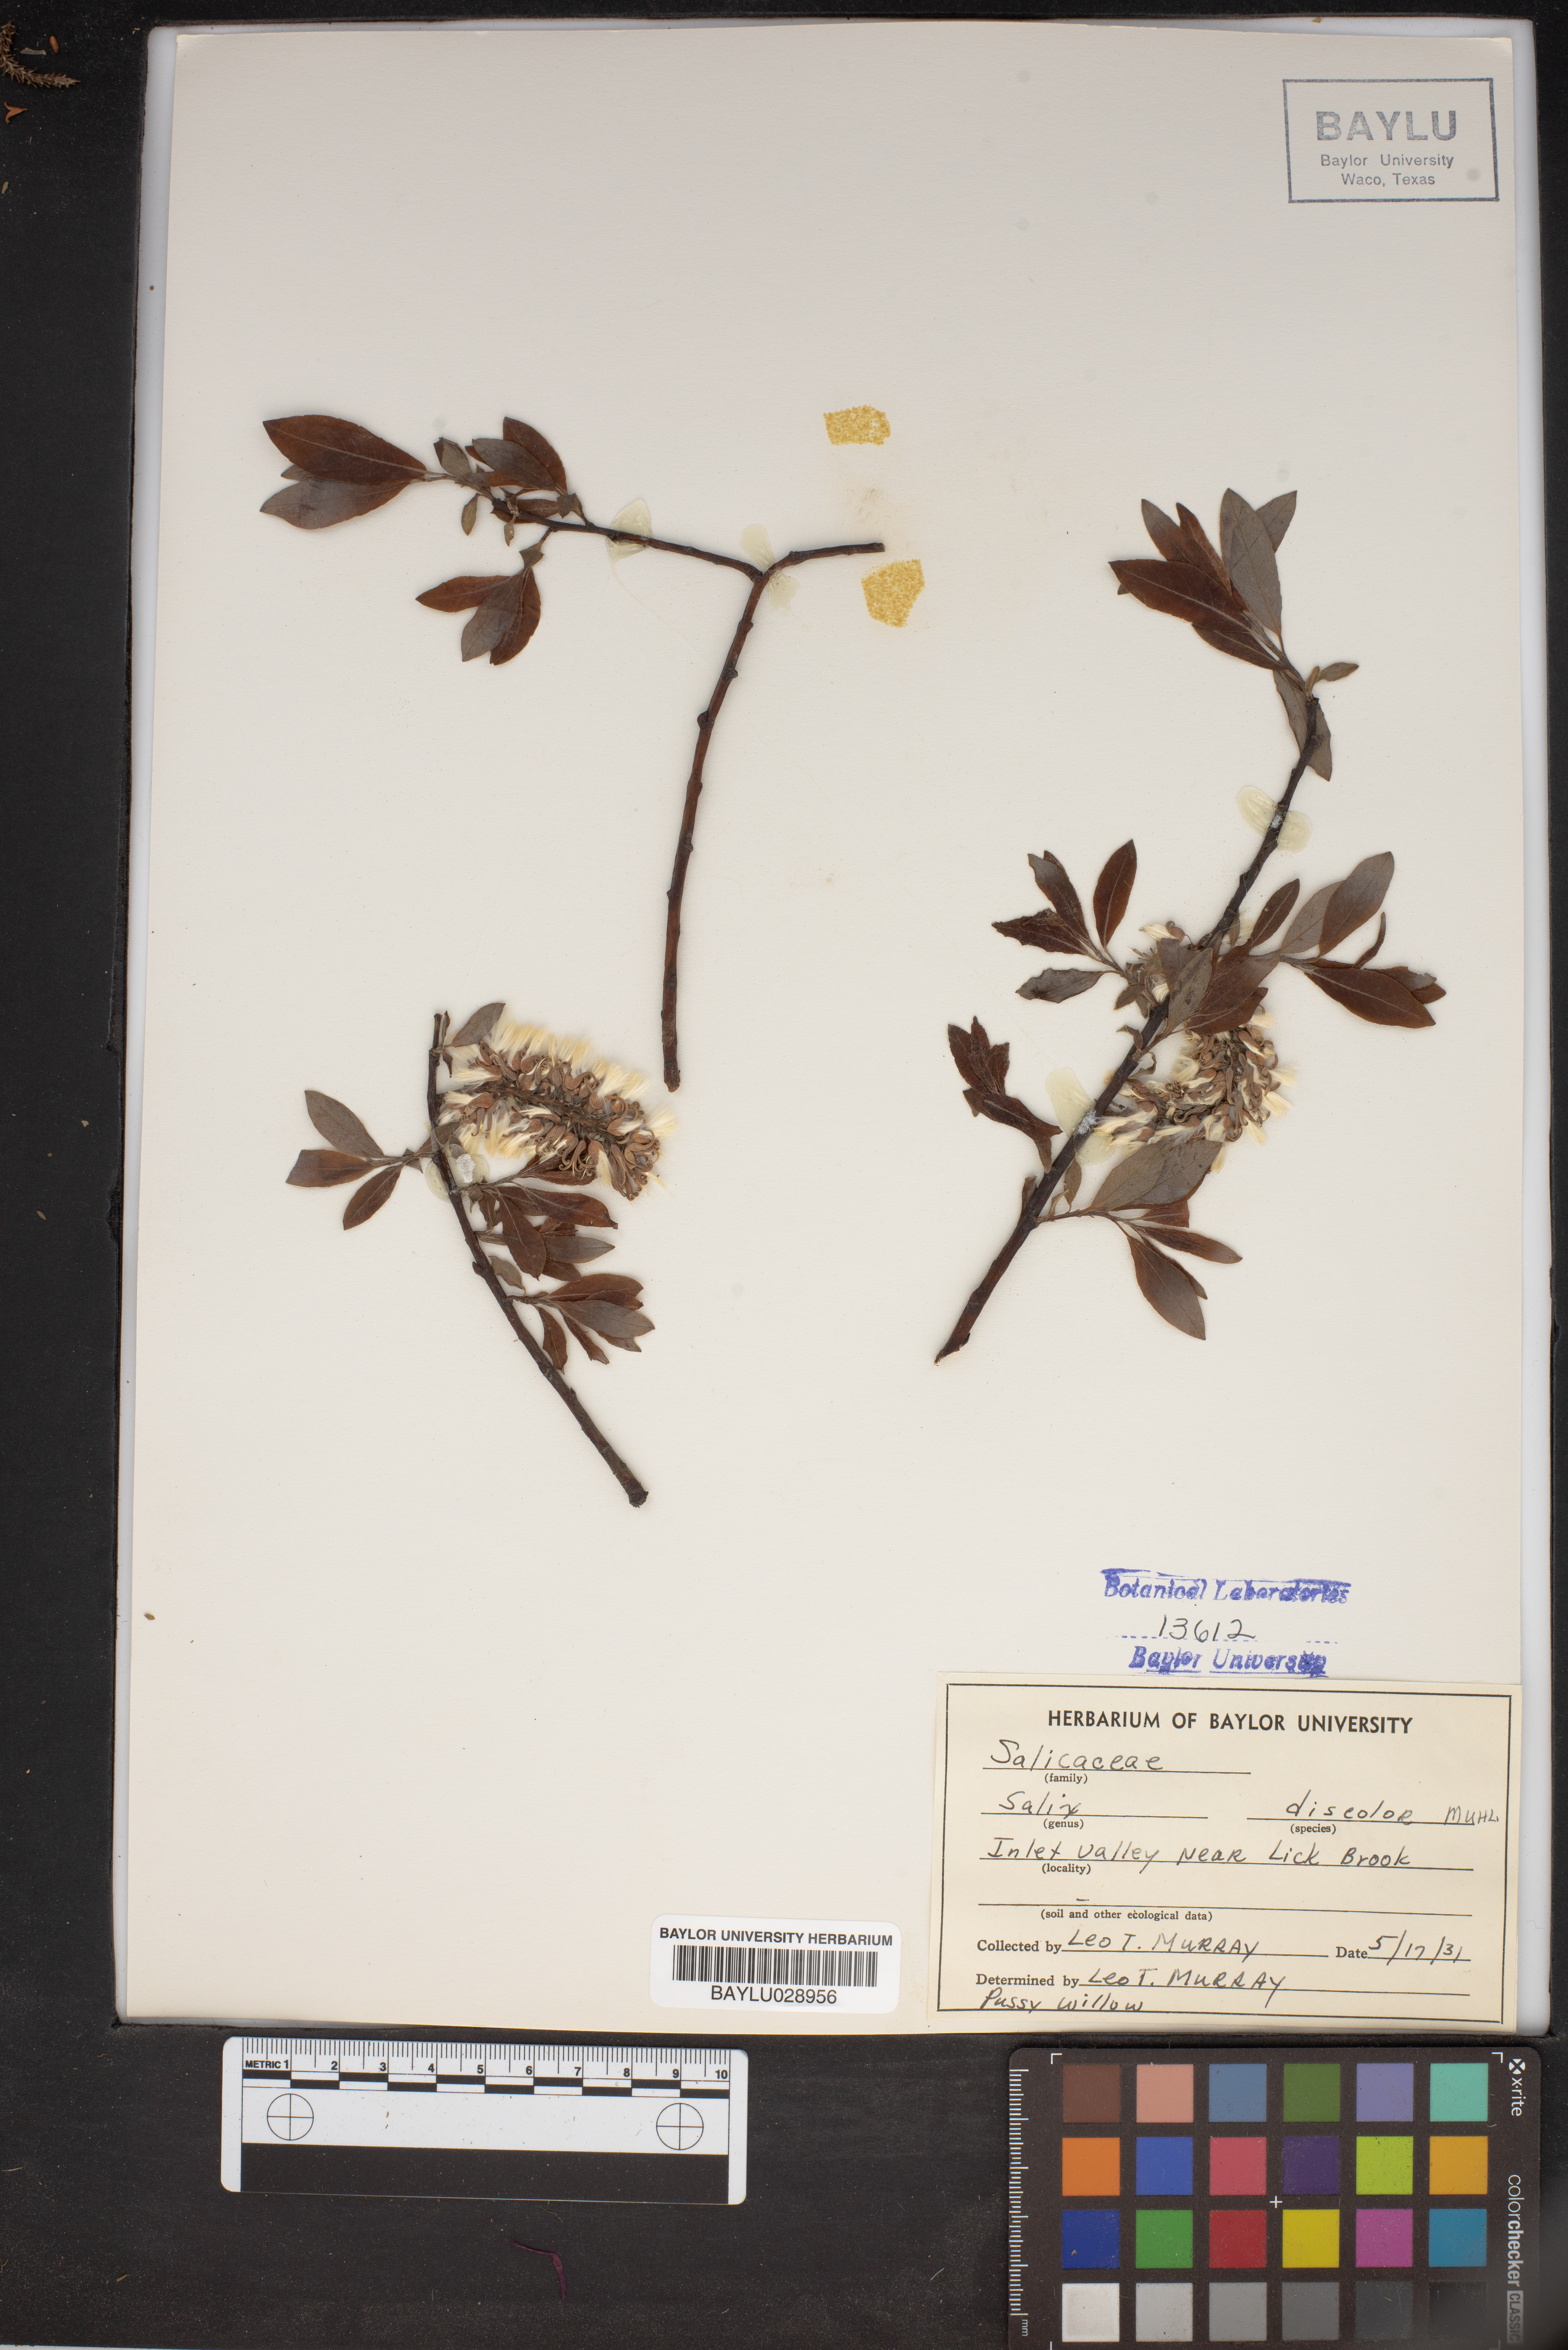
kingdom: Plantae
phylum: Tracheophyta
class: Magnoliopsida
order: Malpighiales
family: Salicaceae
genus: Salix
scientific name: Salix discolor
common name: Glaucous willow
